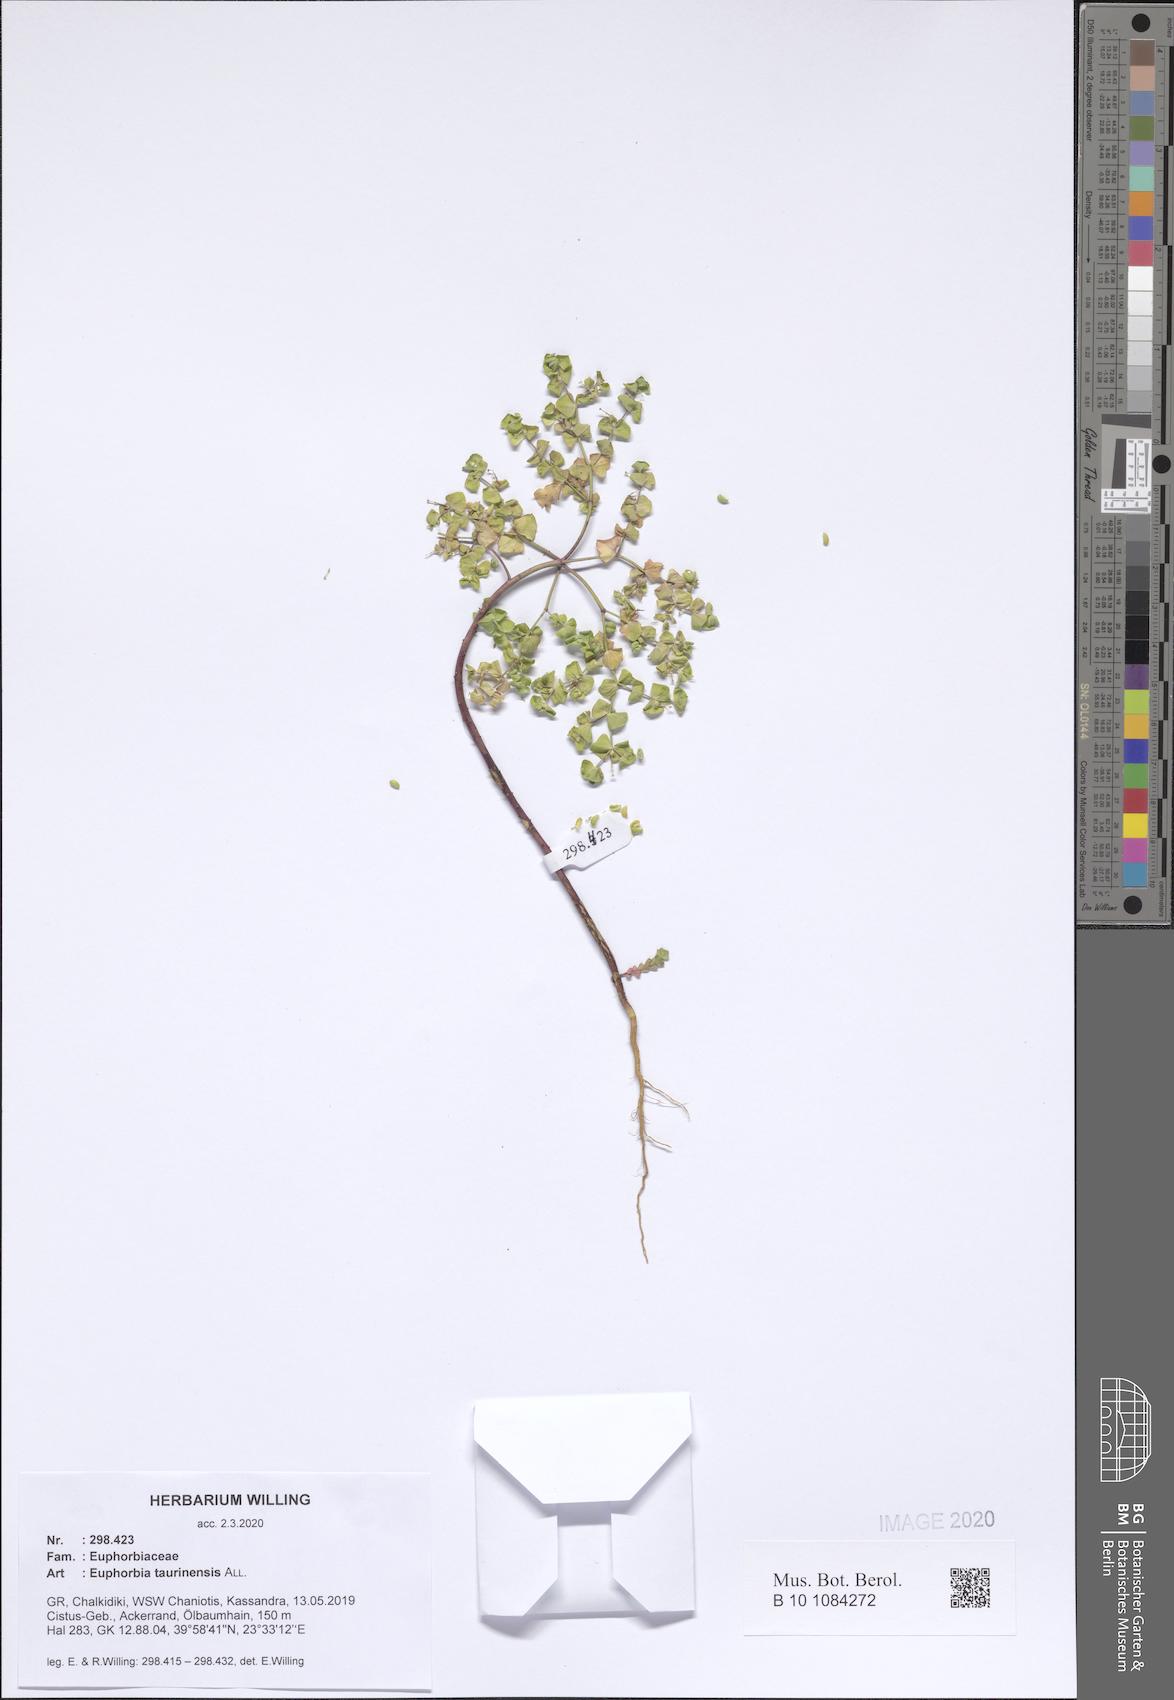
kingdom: Plantae
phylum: Tracheophyta
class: Magnoliopsida
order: Malpighiales
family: Euphorbiaceae
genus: Euphorbia
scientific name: Euphorbia taurinensis
